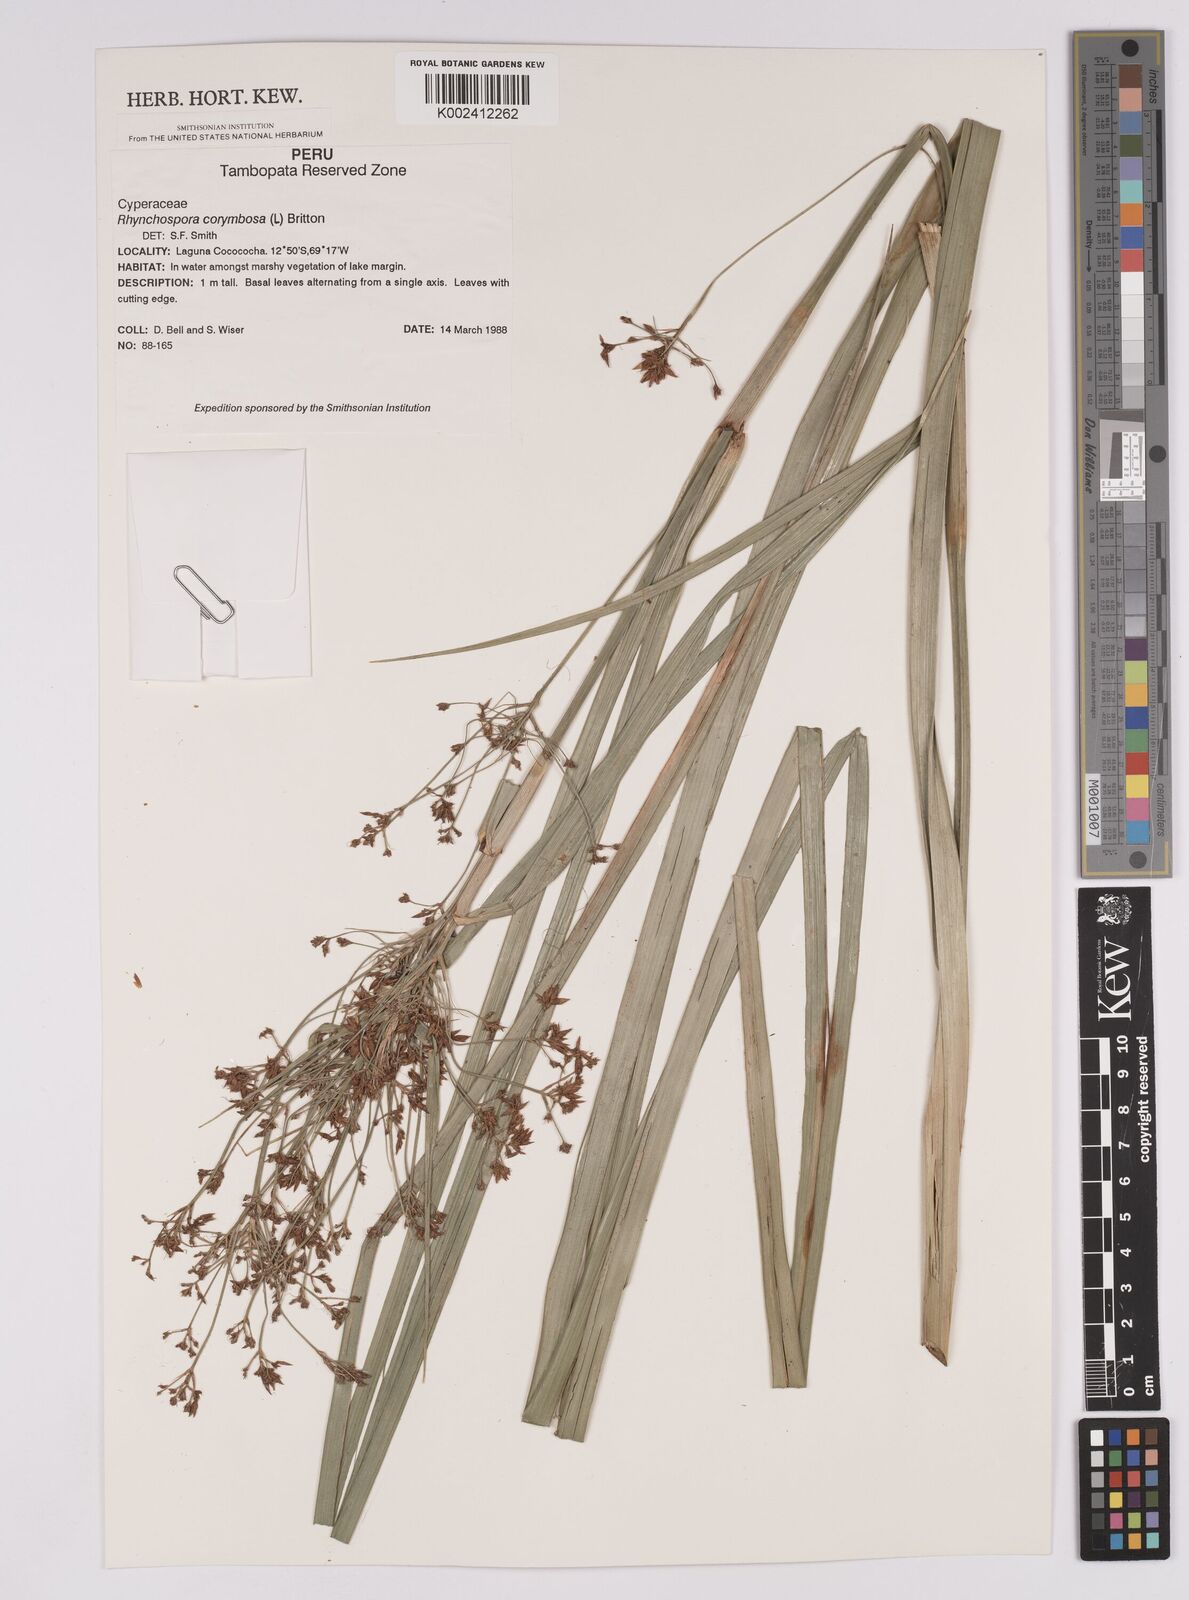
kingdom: Plantae
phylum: Tracheophyta
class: Liliopsida
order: Poales
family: Cyperaceae
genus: Rhynchospora
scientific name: Rhynchospora corymbosa
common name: Golden beak sedge
